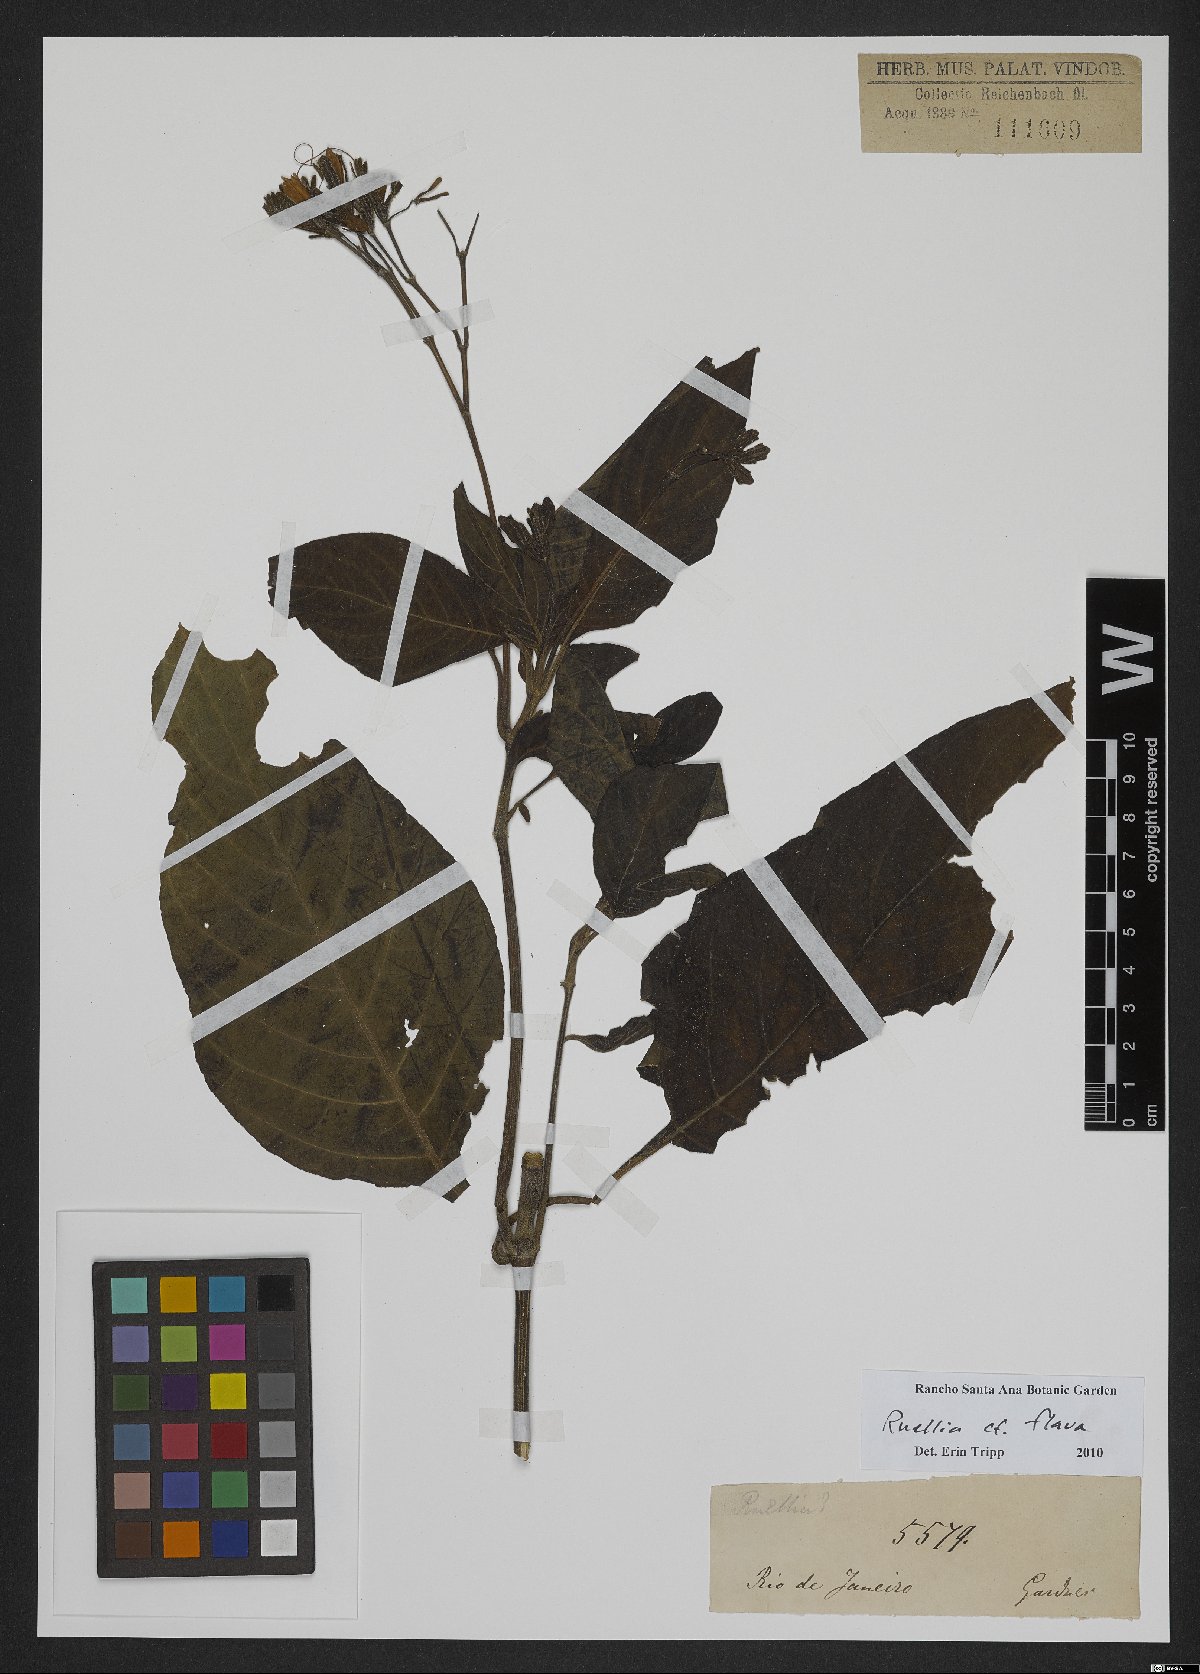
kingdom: Plantae
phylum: Tracheophyta
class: Magnoliopsida
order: Lamiales
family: Acanthaceae
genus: Ruellia
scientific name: Ruellia ochroleuca
